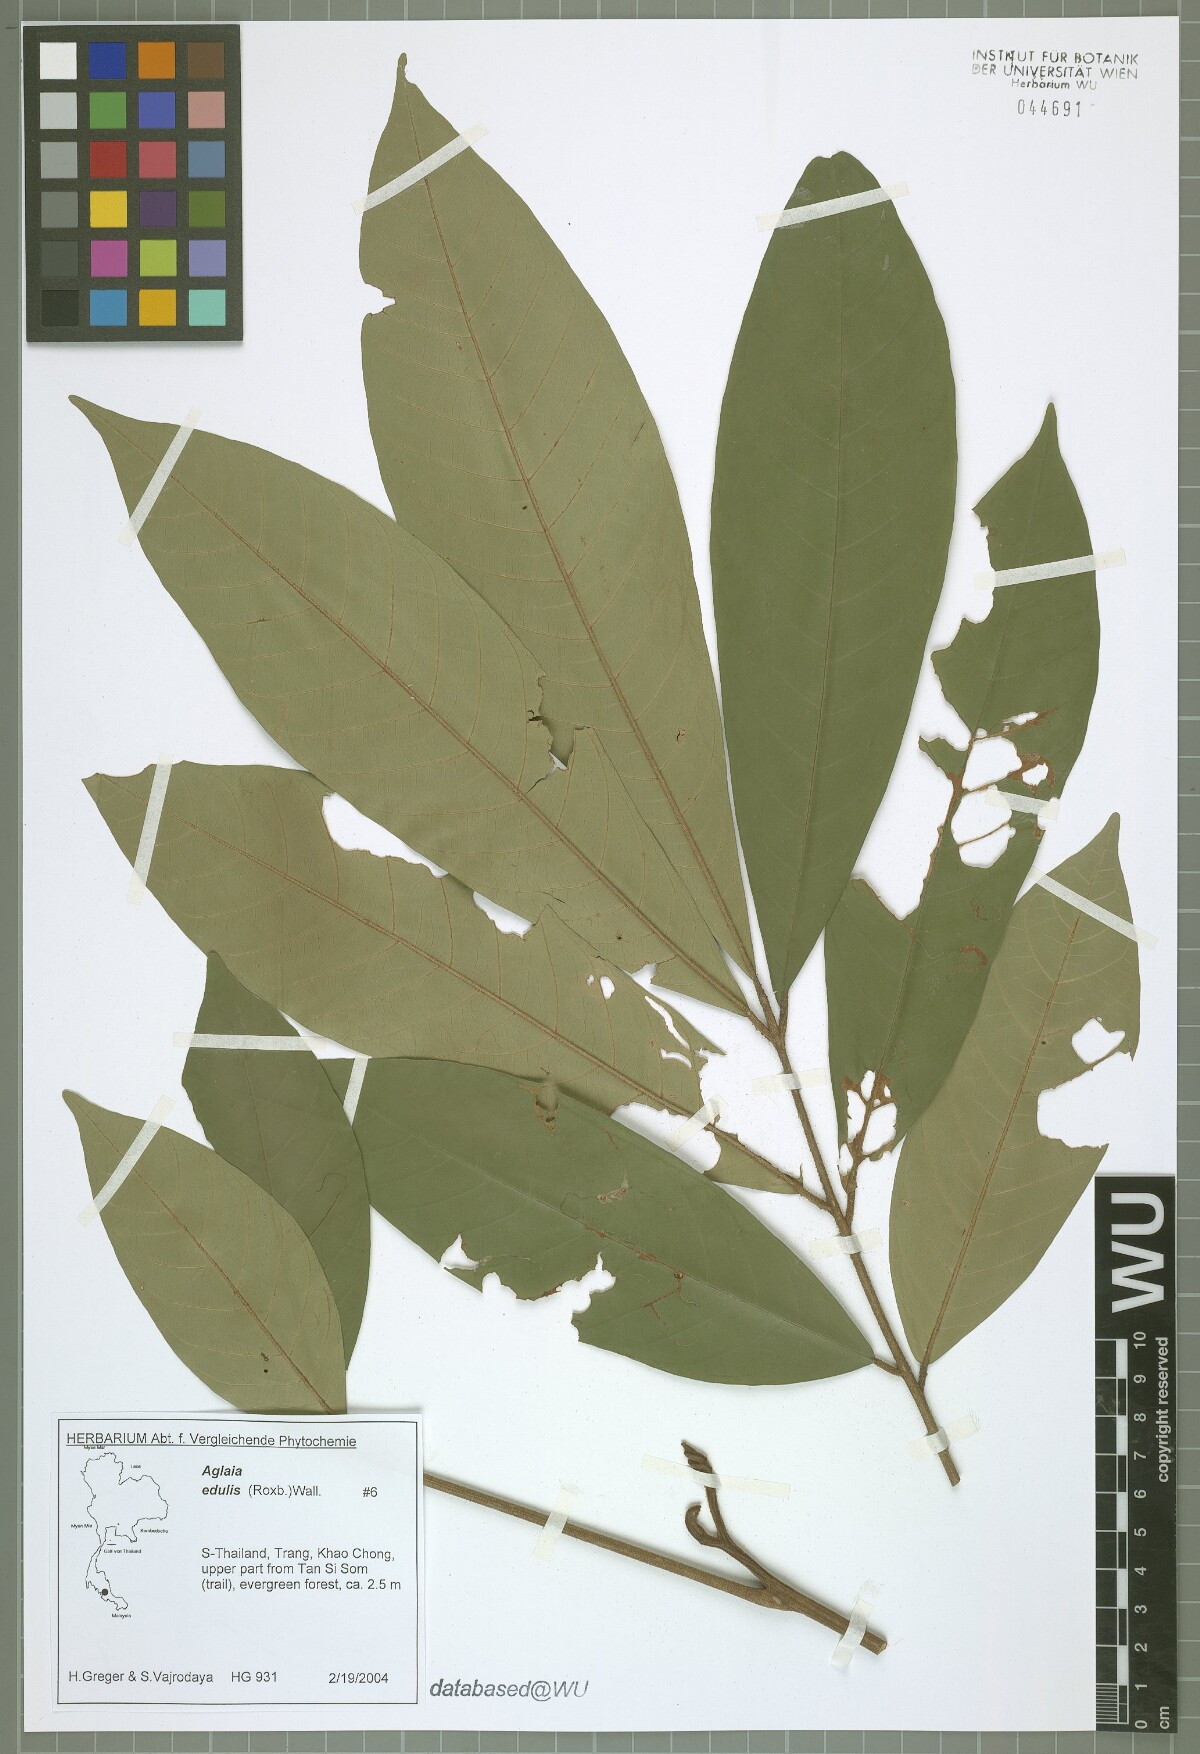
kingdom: Plantae
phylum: Tracheophyta
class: Magnoliopsida
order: Sapindales
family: Meliaceae
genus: Aglaia
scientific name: Aglaia edulis
